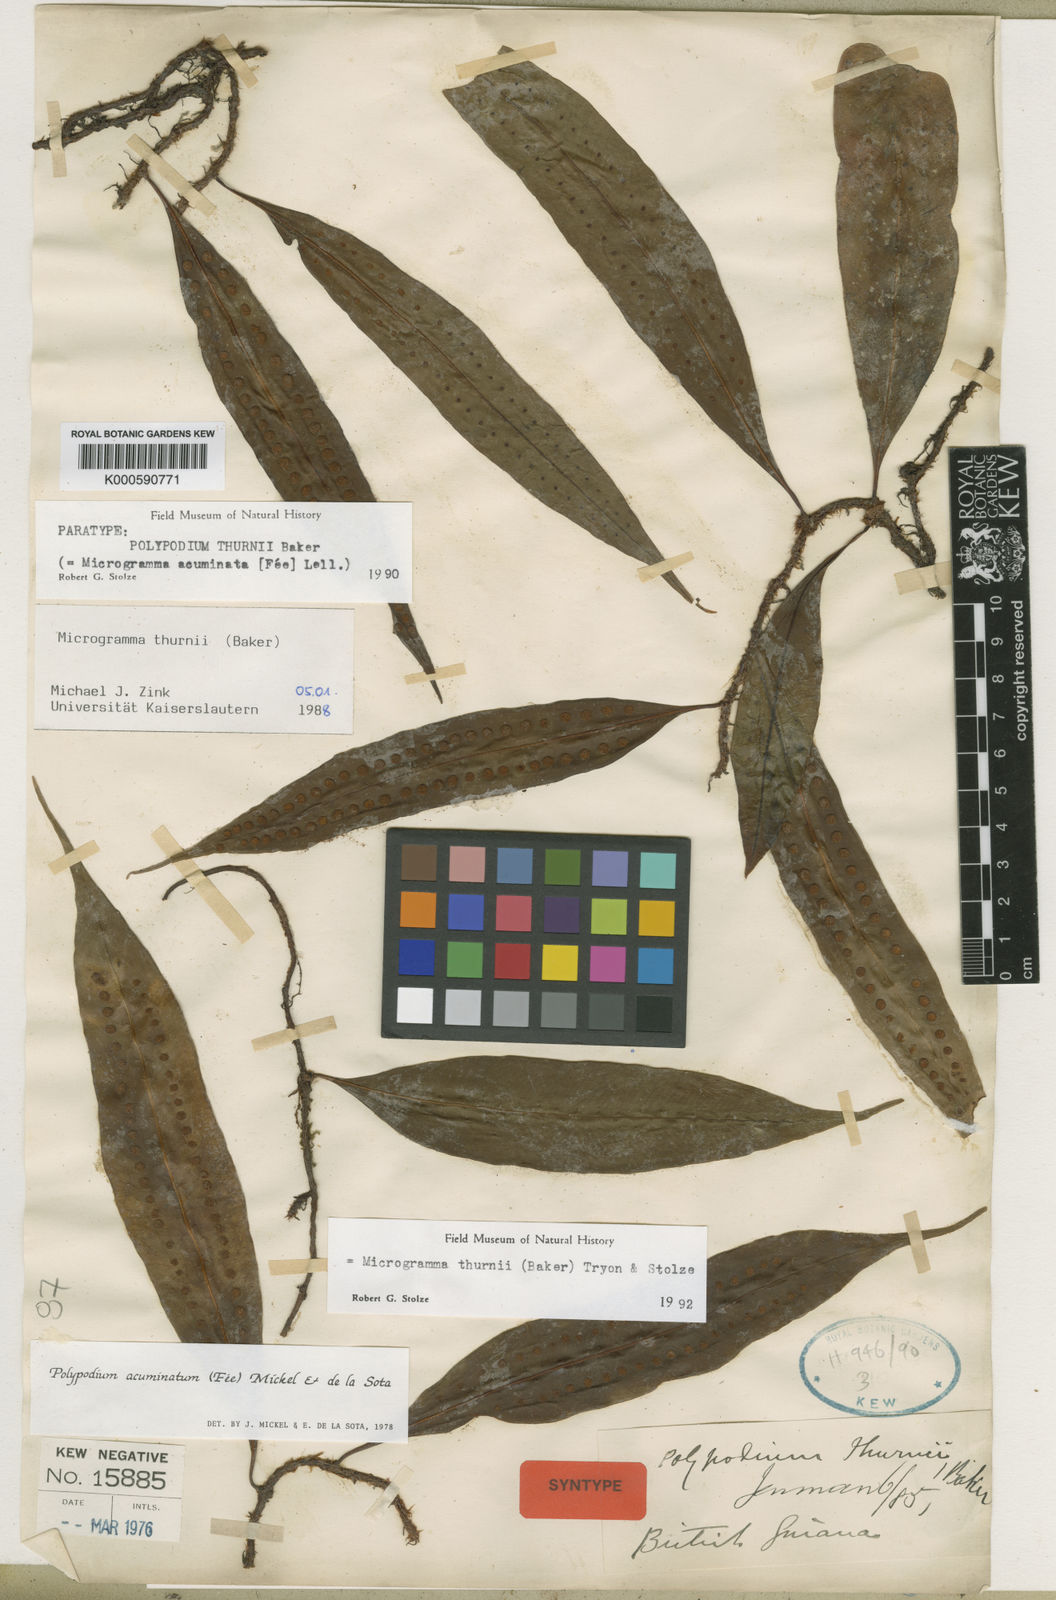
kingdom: Plantae
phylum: Tracheophyta
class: Polypodiopsida
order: Polypodiales
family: Polypodiaceae
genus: Microgramma
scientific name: Microgramma thurnii
